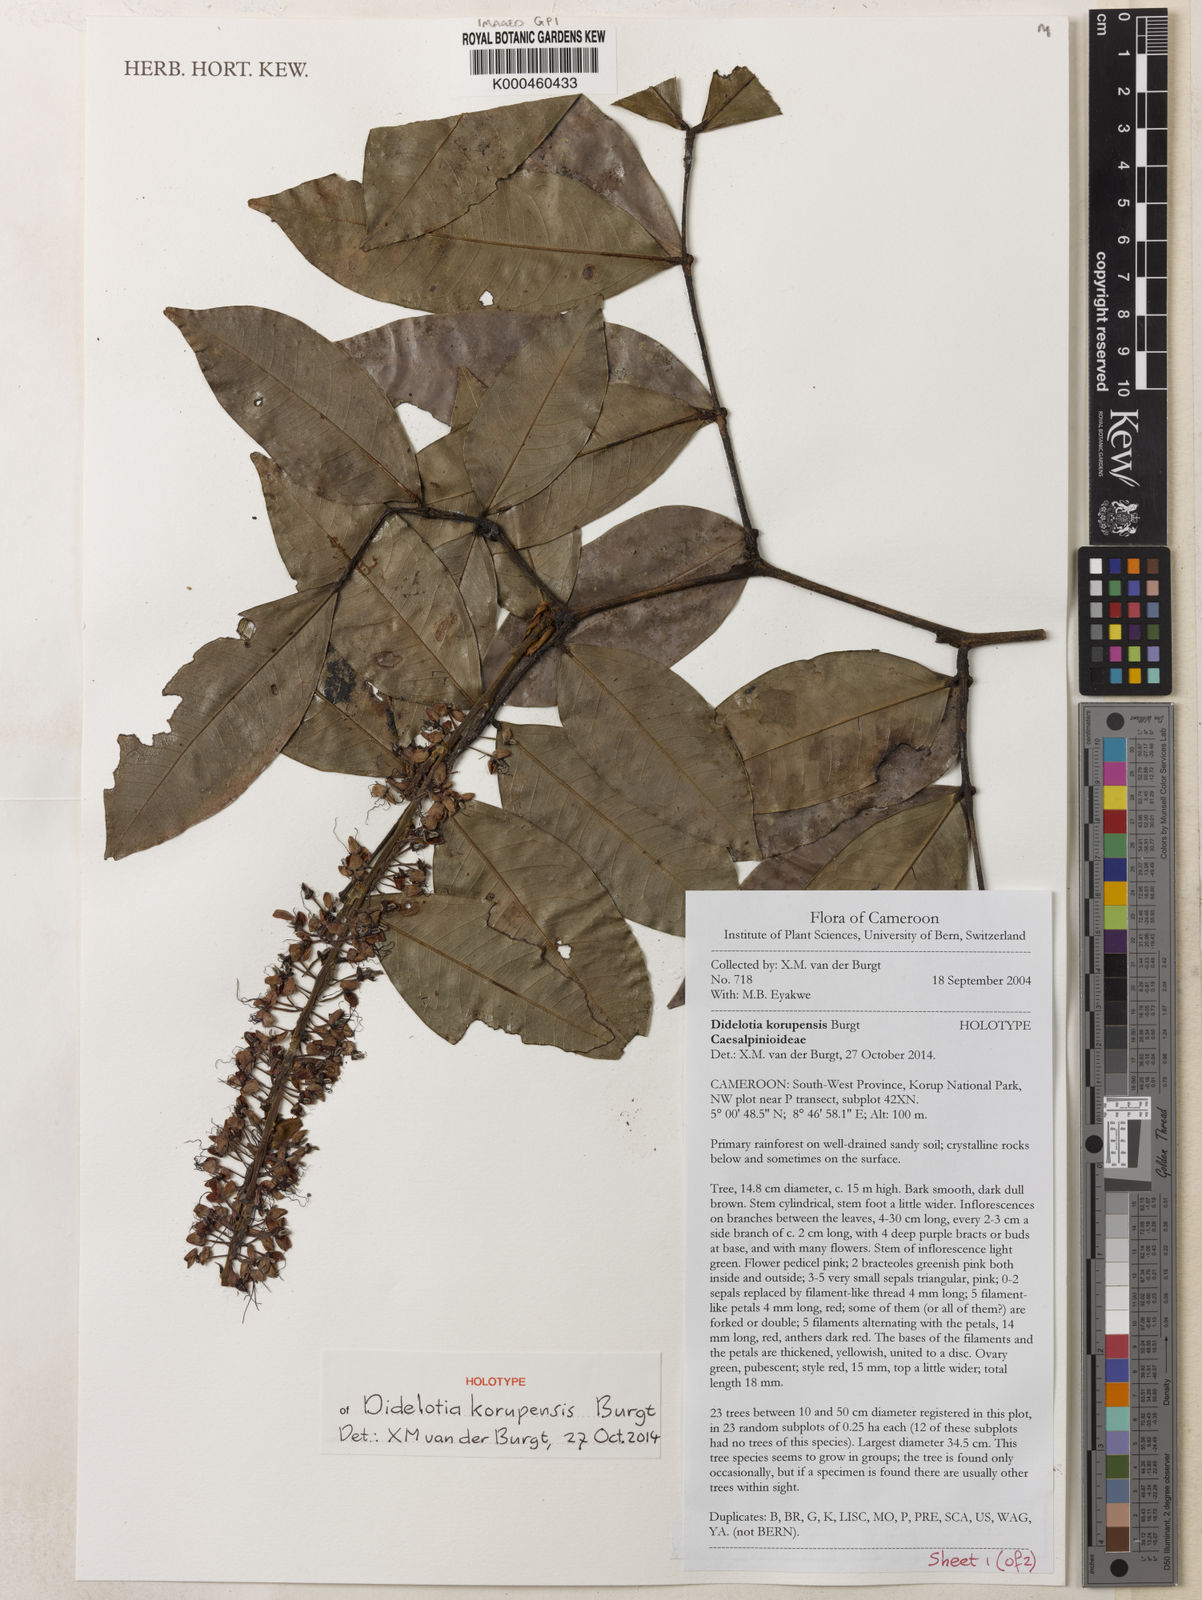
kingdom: Plantae
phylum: Tracheophyta
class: Magnoliopsida
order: Fabales
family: Fabaceae
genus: Didelotia
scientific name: Didelotia korupensis
